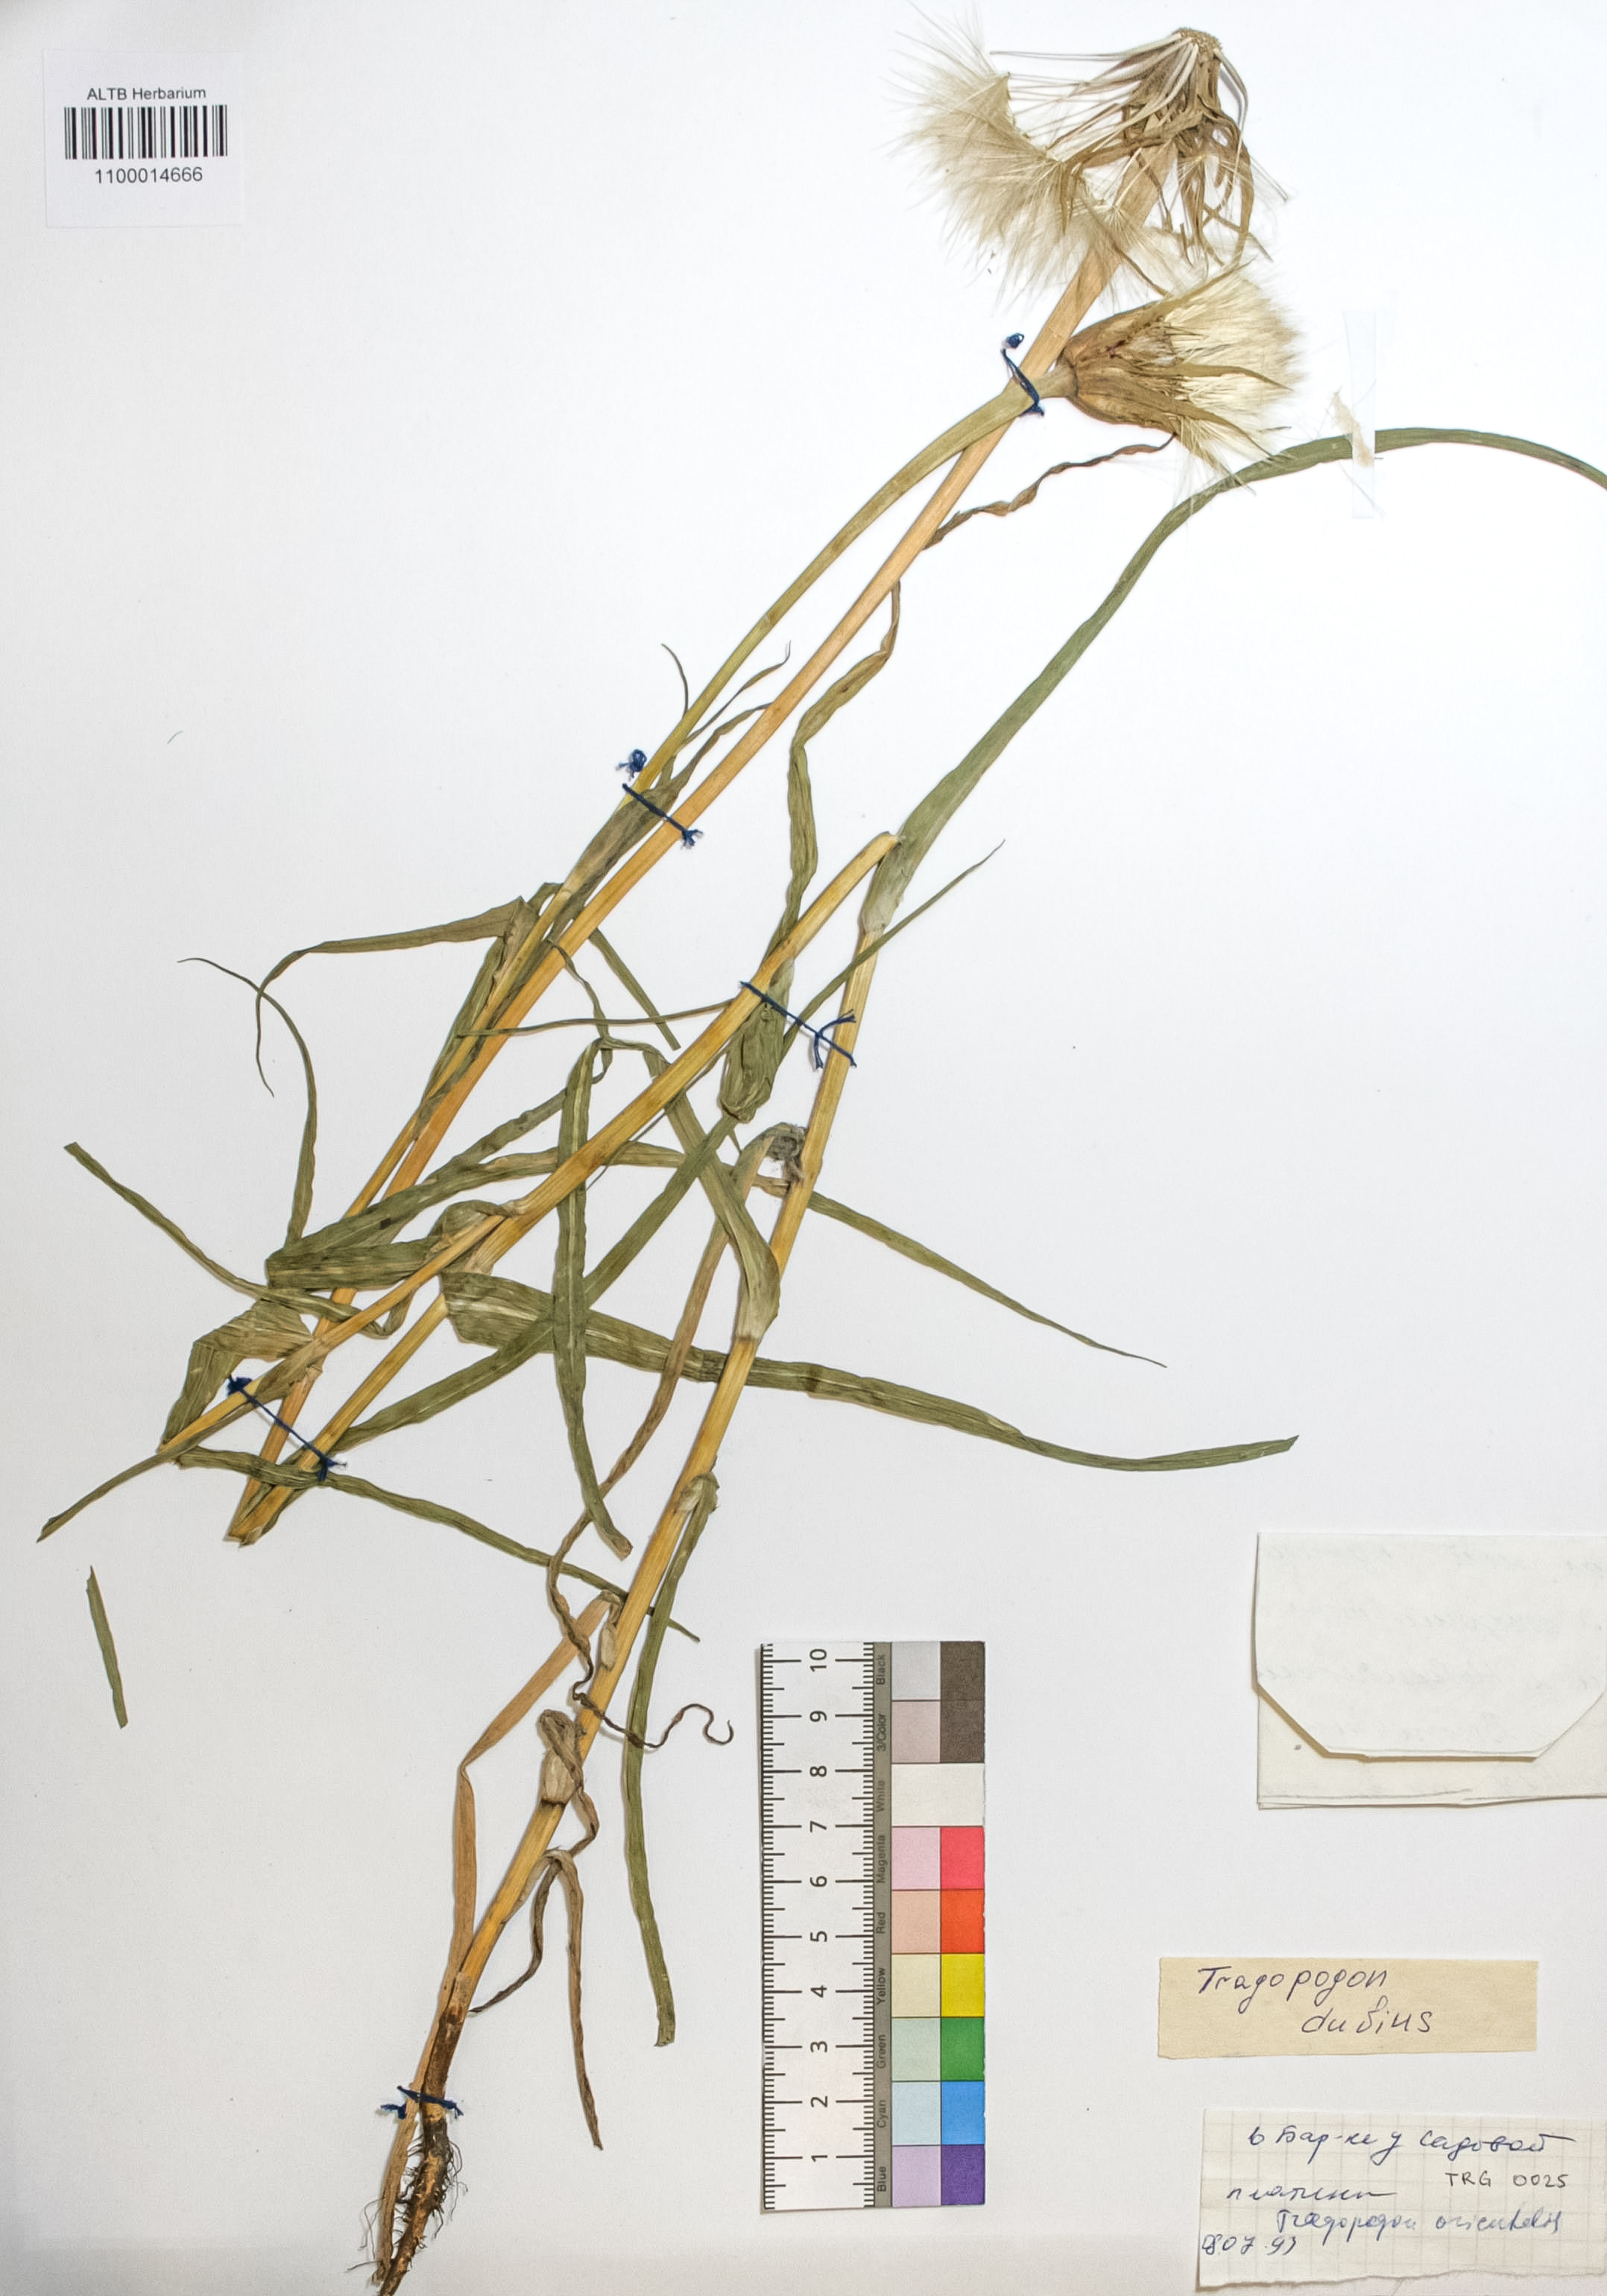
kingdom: Plantae
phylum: Tracheophyta
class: Magnoliopsida
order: Asterales
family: Asteraceae
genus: Tragopogon
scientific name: Tragopogon dubius
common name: Yellow salsify
